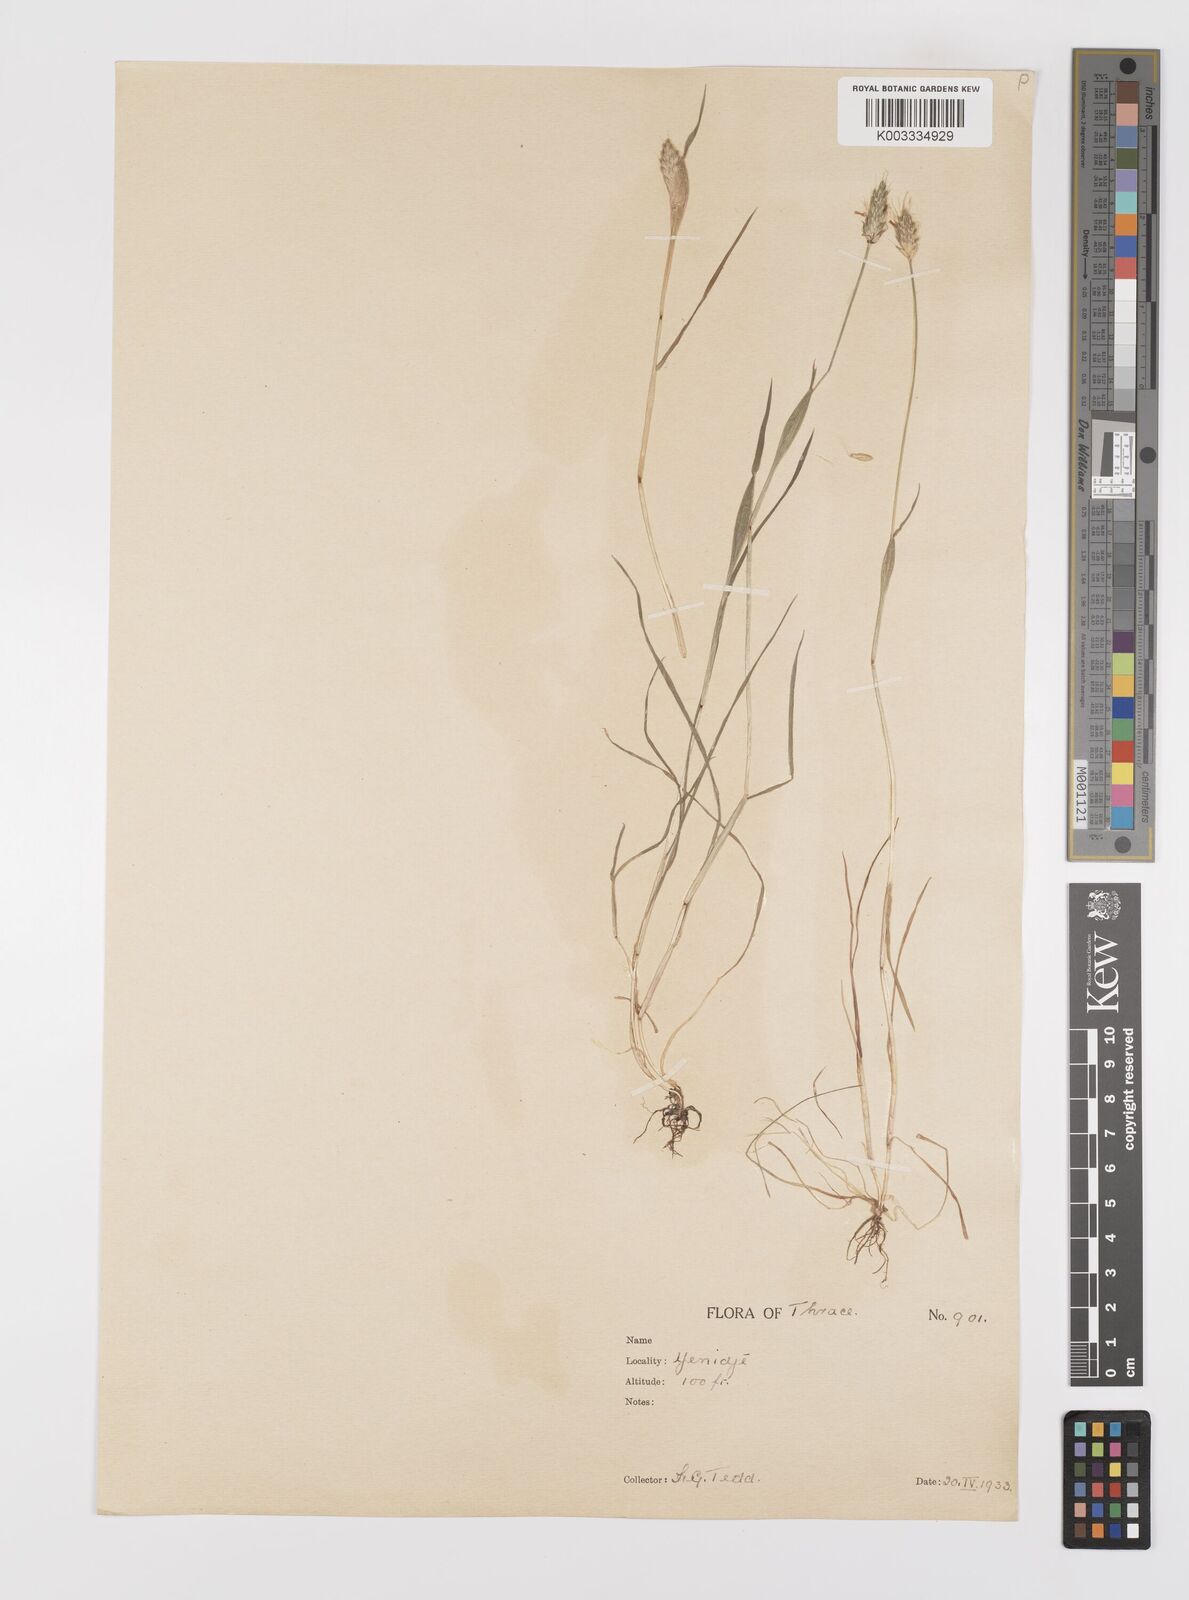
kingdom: Plantae
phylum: Tracheophyta
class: Liliopsida
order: Poales
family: Poaceae
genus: Alopecurus
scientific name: Alopecurus rendlei
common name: Rendle's meadow foxtail
